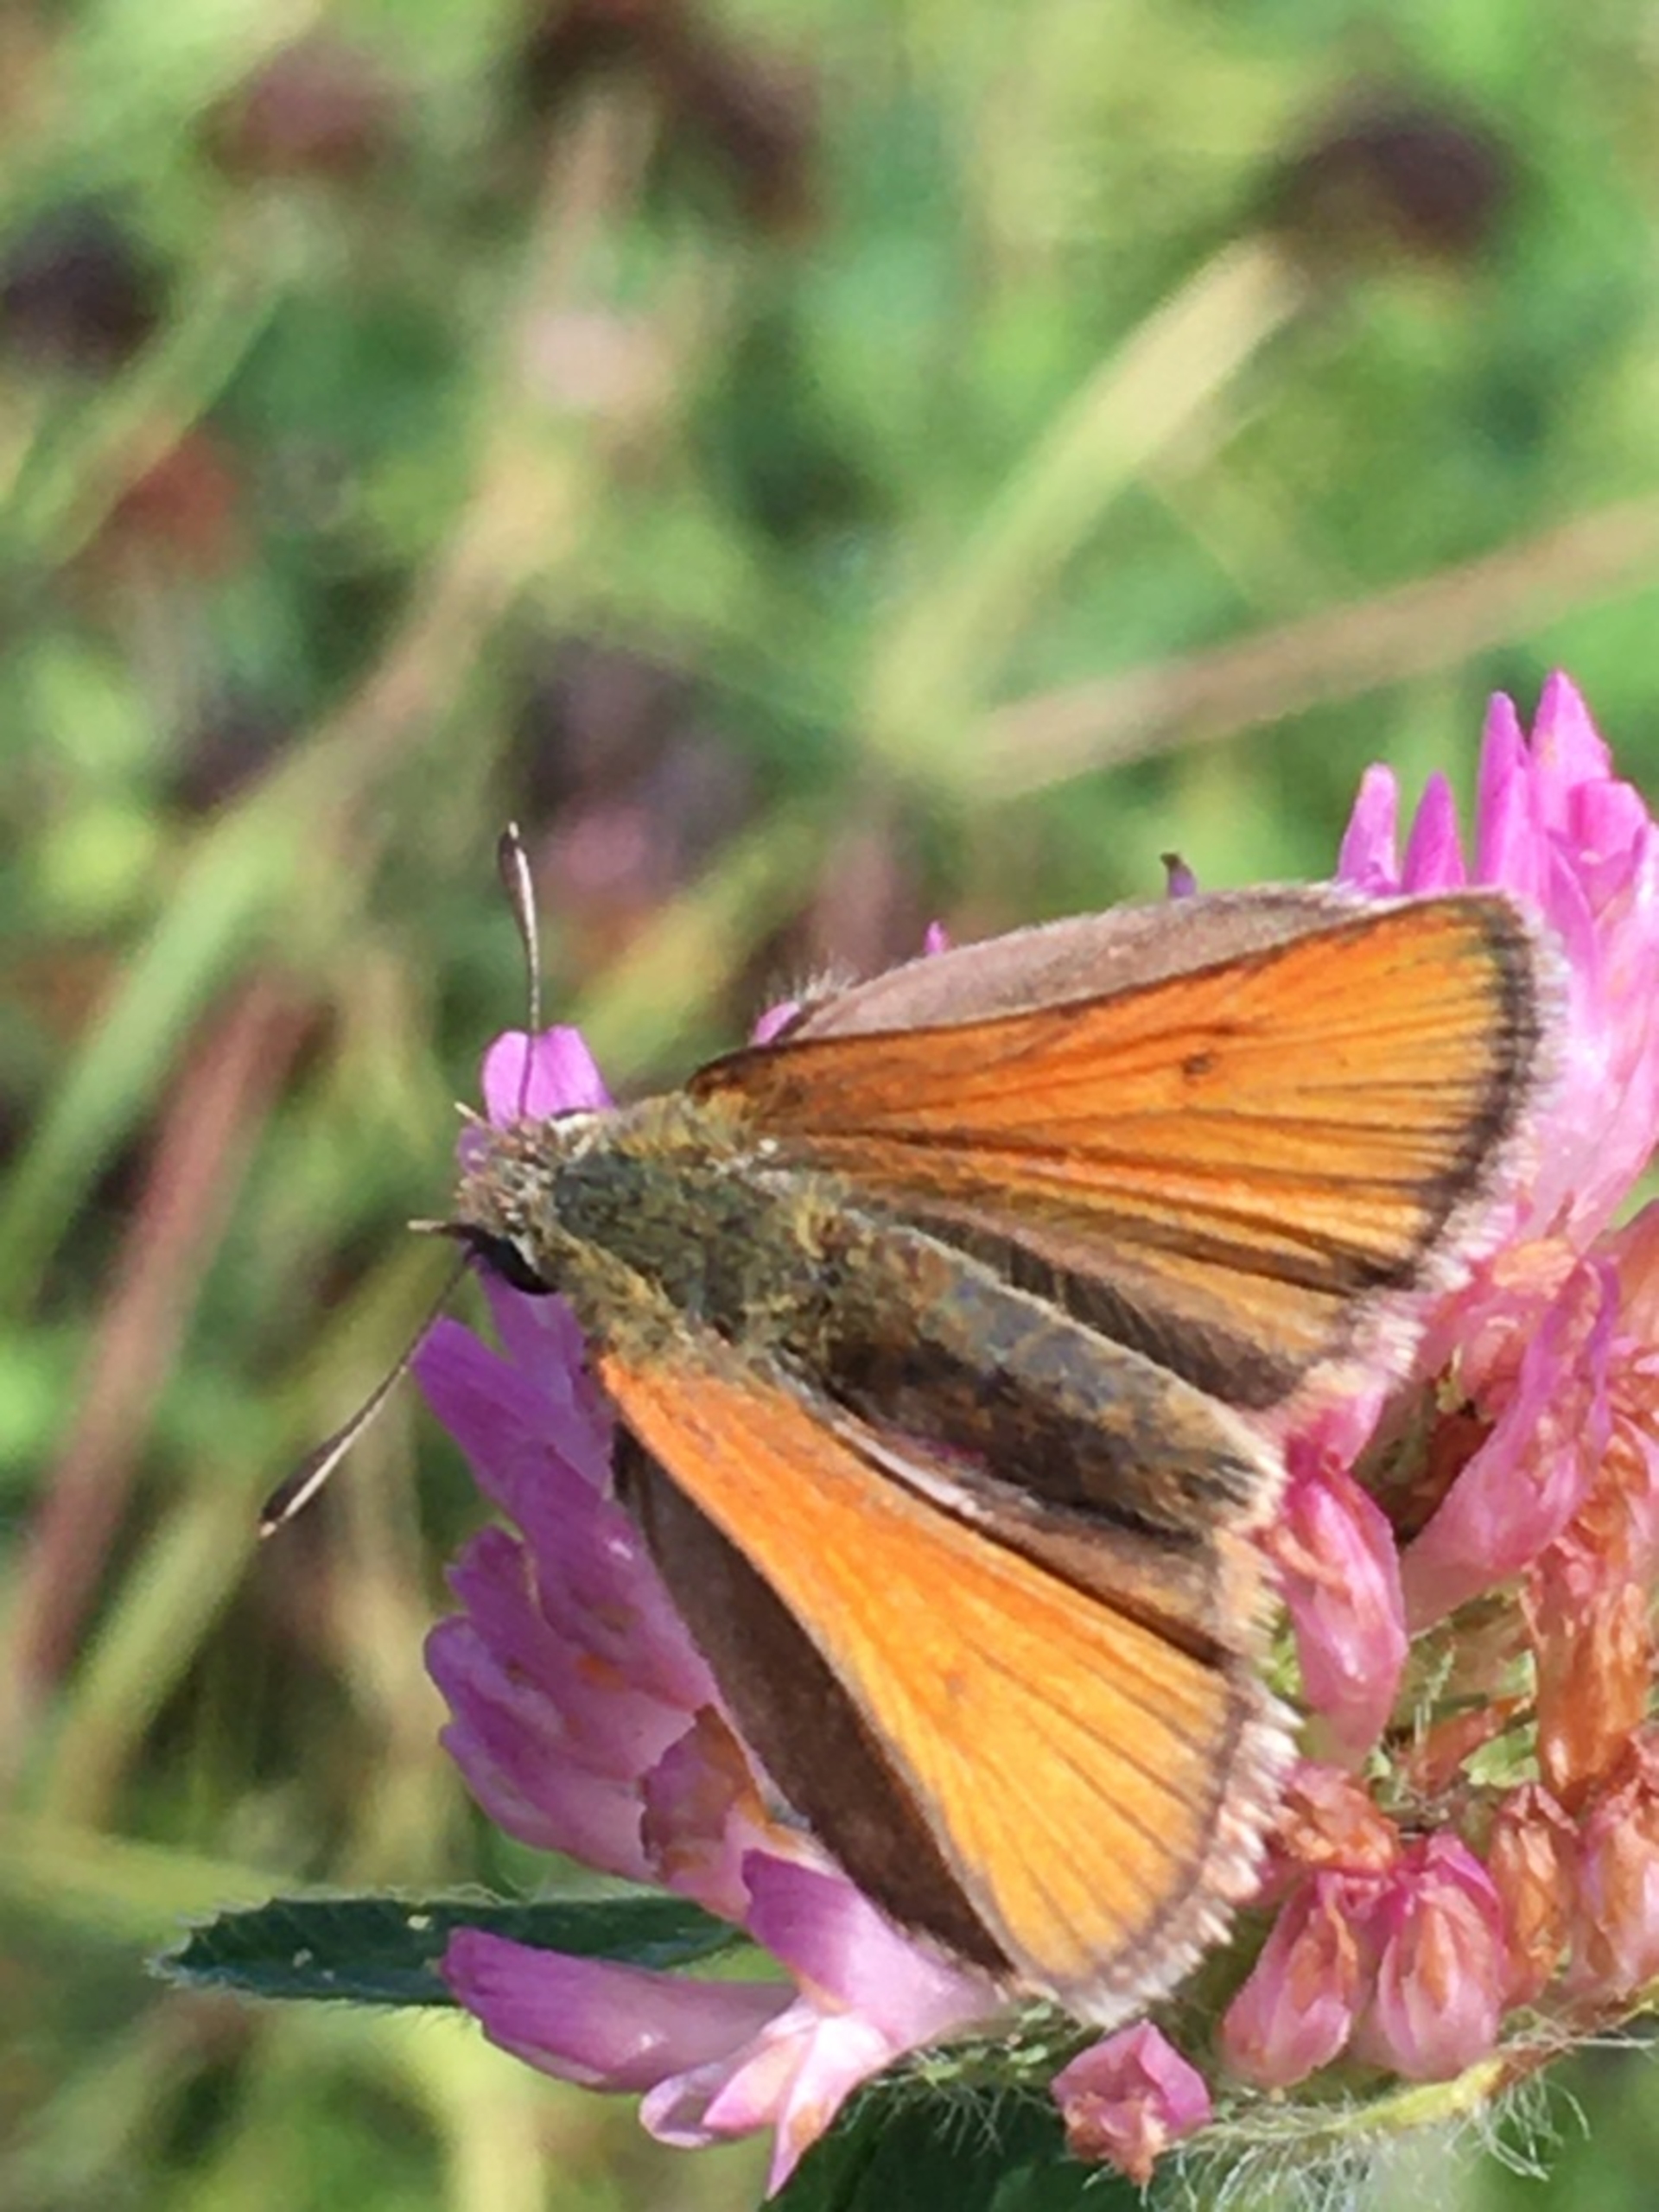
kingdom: Animalia
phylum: Arthropoda
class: Insecta
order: Lepidoptera
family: Hesperiidae
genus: Thymelicus
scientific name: Thymelicus sylvestris
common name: Skråstregbredpande
